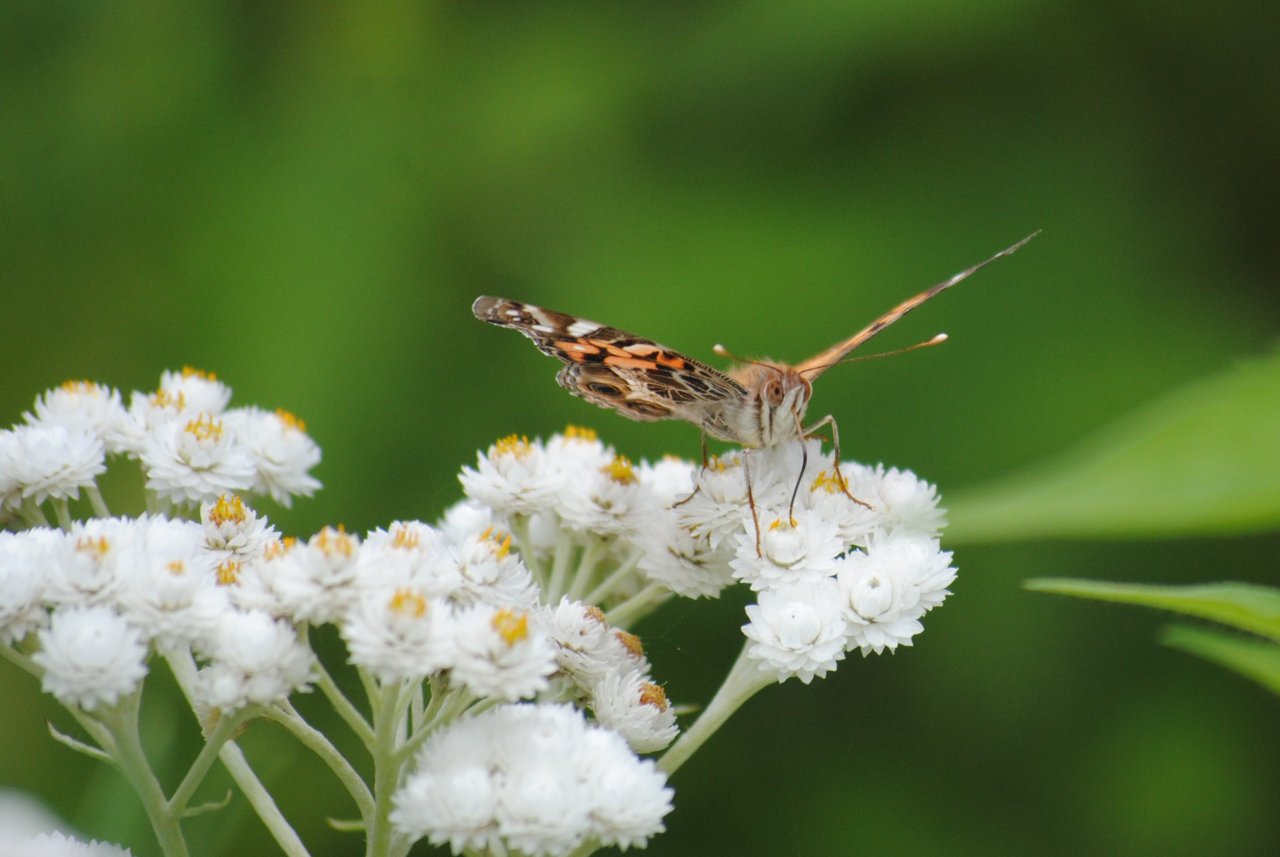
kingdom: Animalia
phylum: Arthropoda
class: Insecta
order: Lepidoptera
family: Nymphalidae
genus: Vanessa
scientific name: Vanessa virginiensis
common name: American Lady
